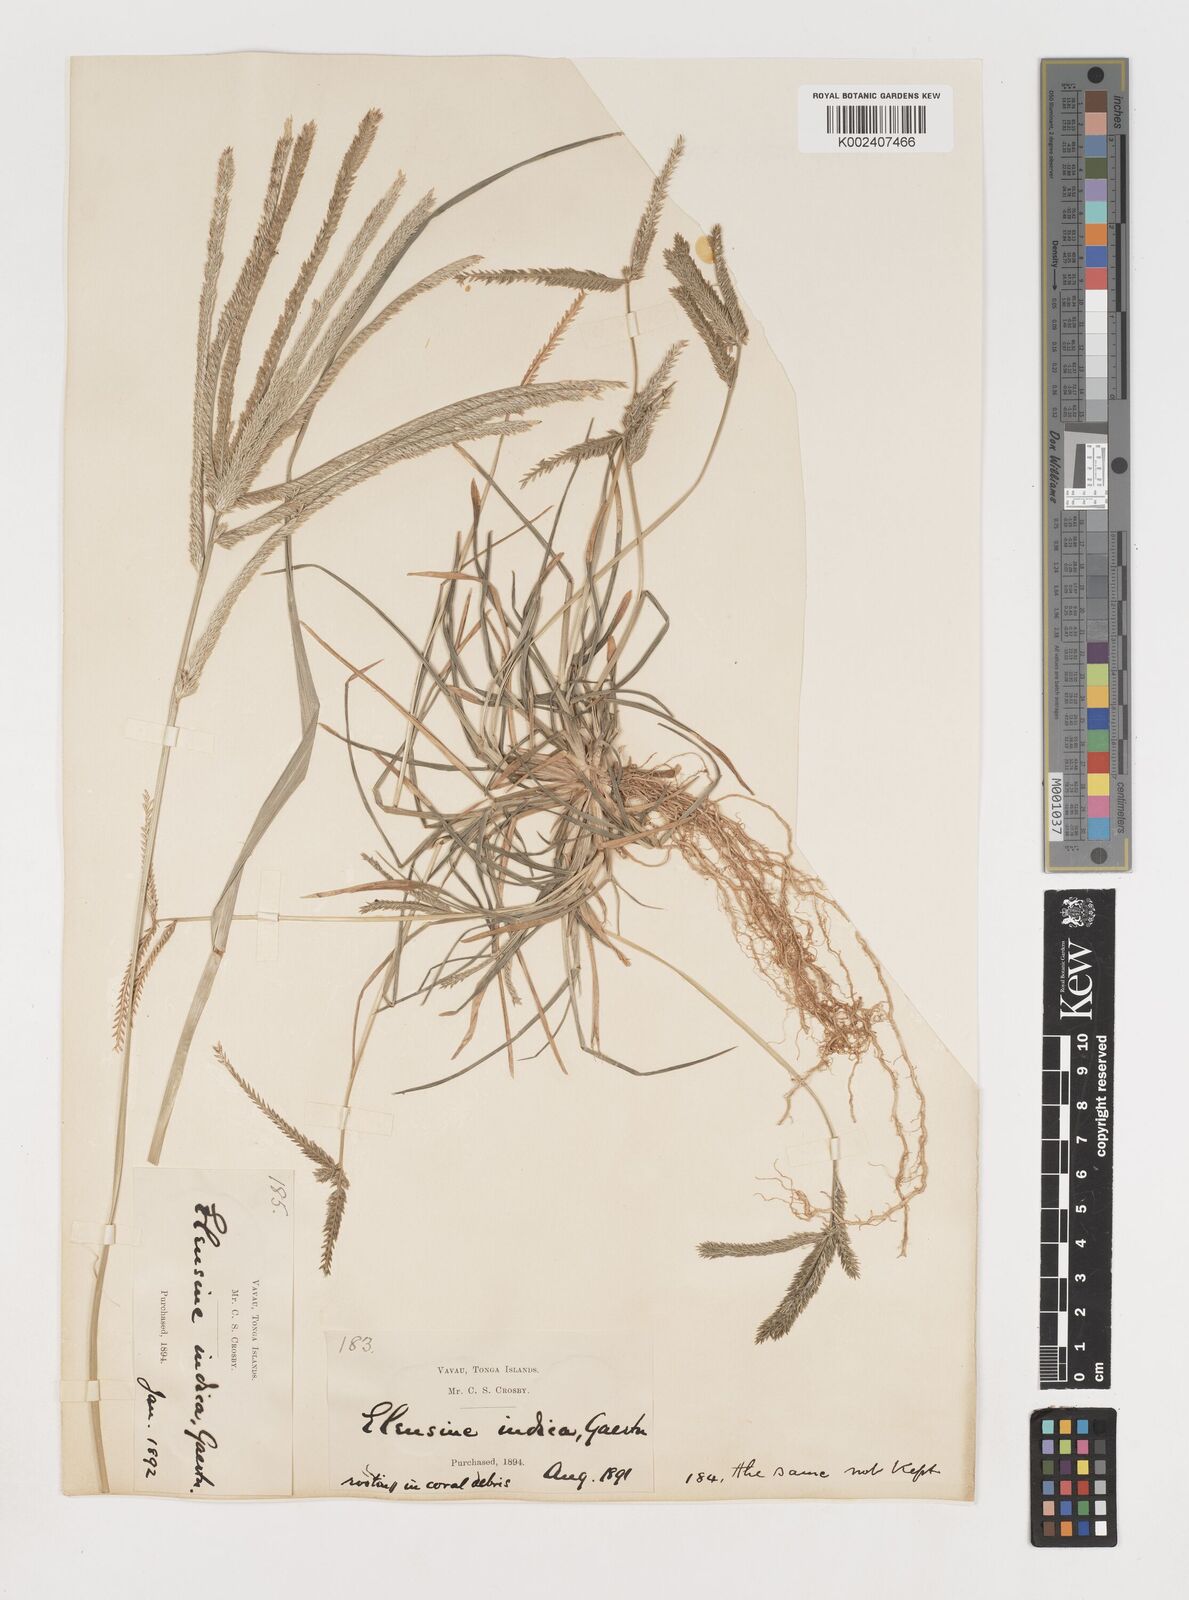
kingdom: Plantae
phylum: Tracheophyta
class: Liliopsida
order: Poales
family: Poaceae
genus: Eleusine
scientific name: Eleusine indica
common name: Yard-grass
